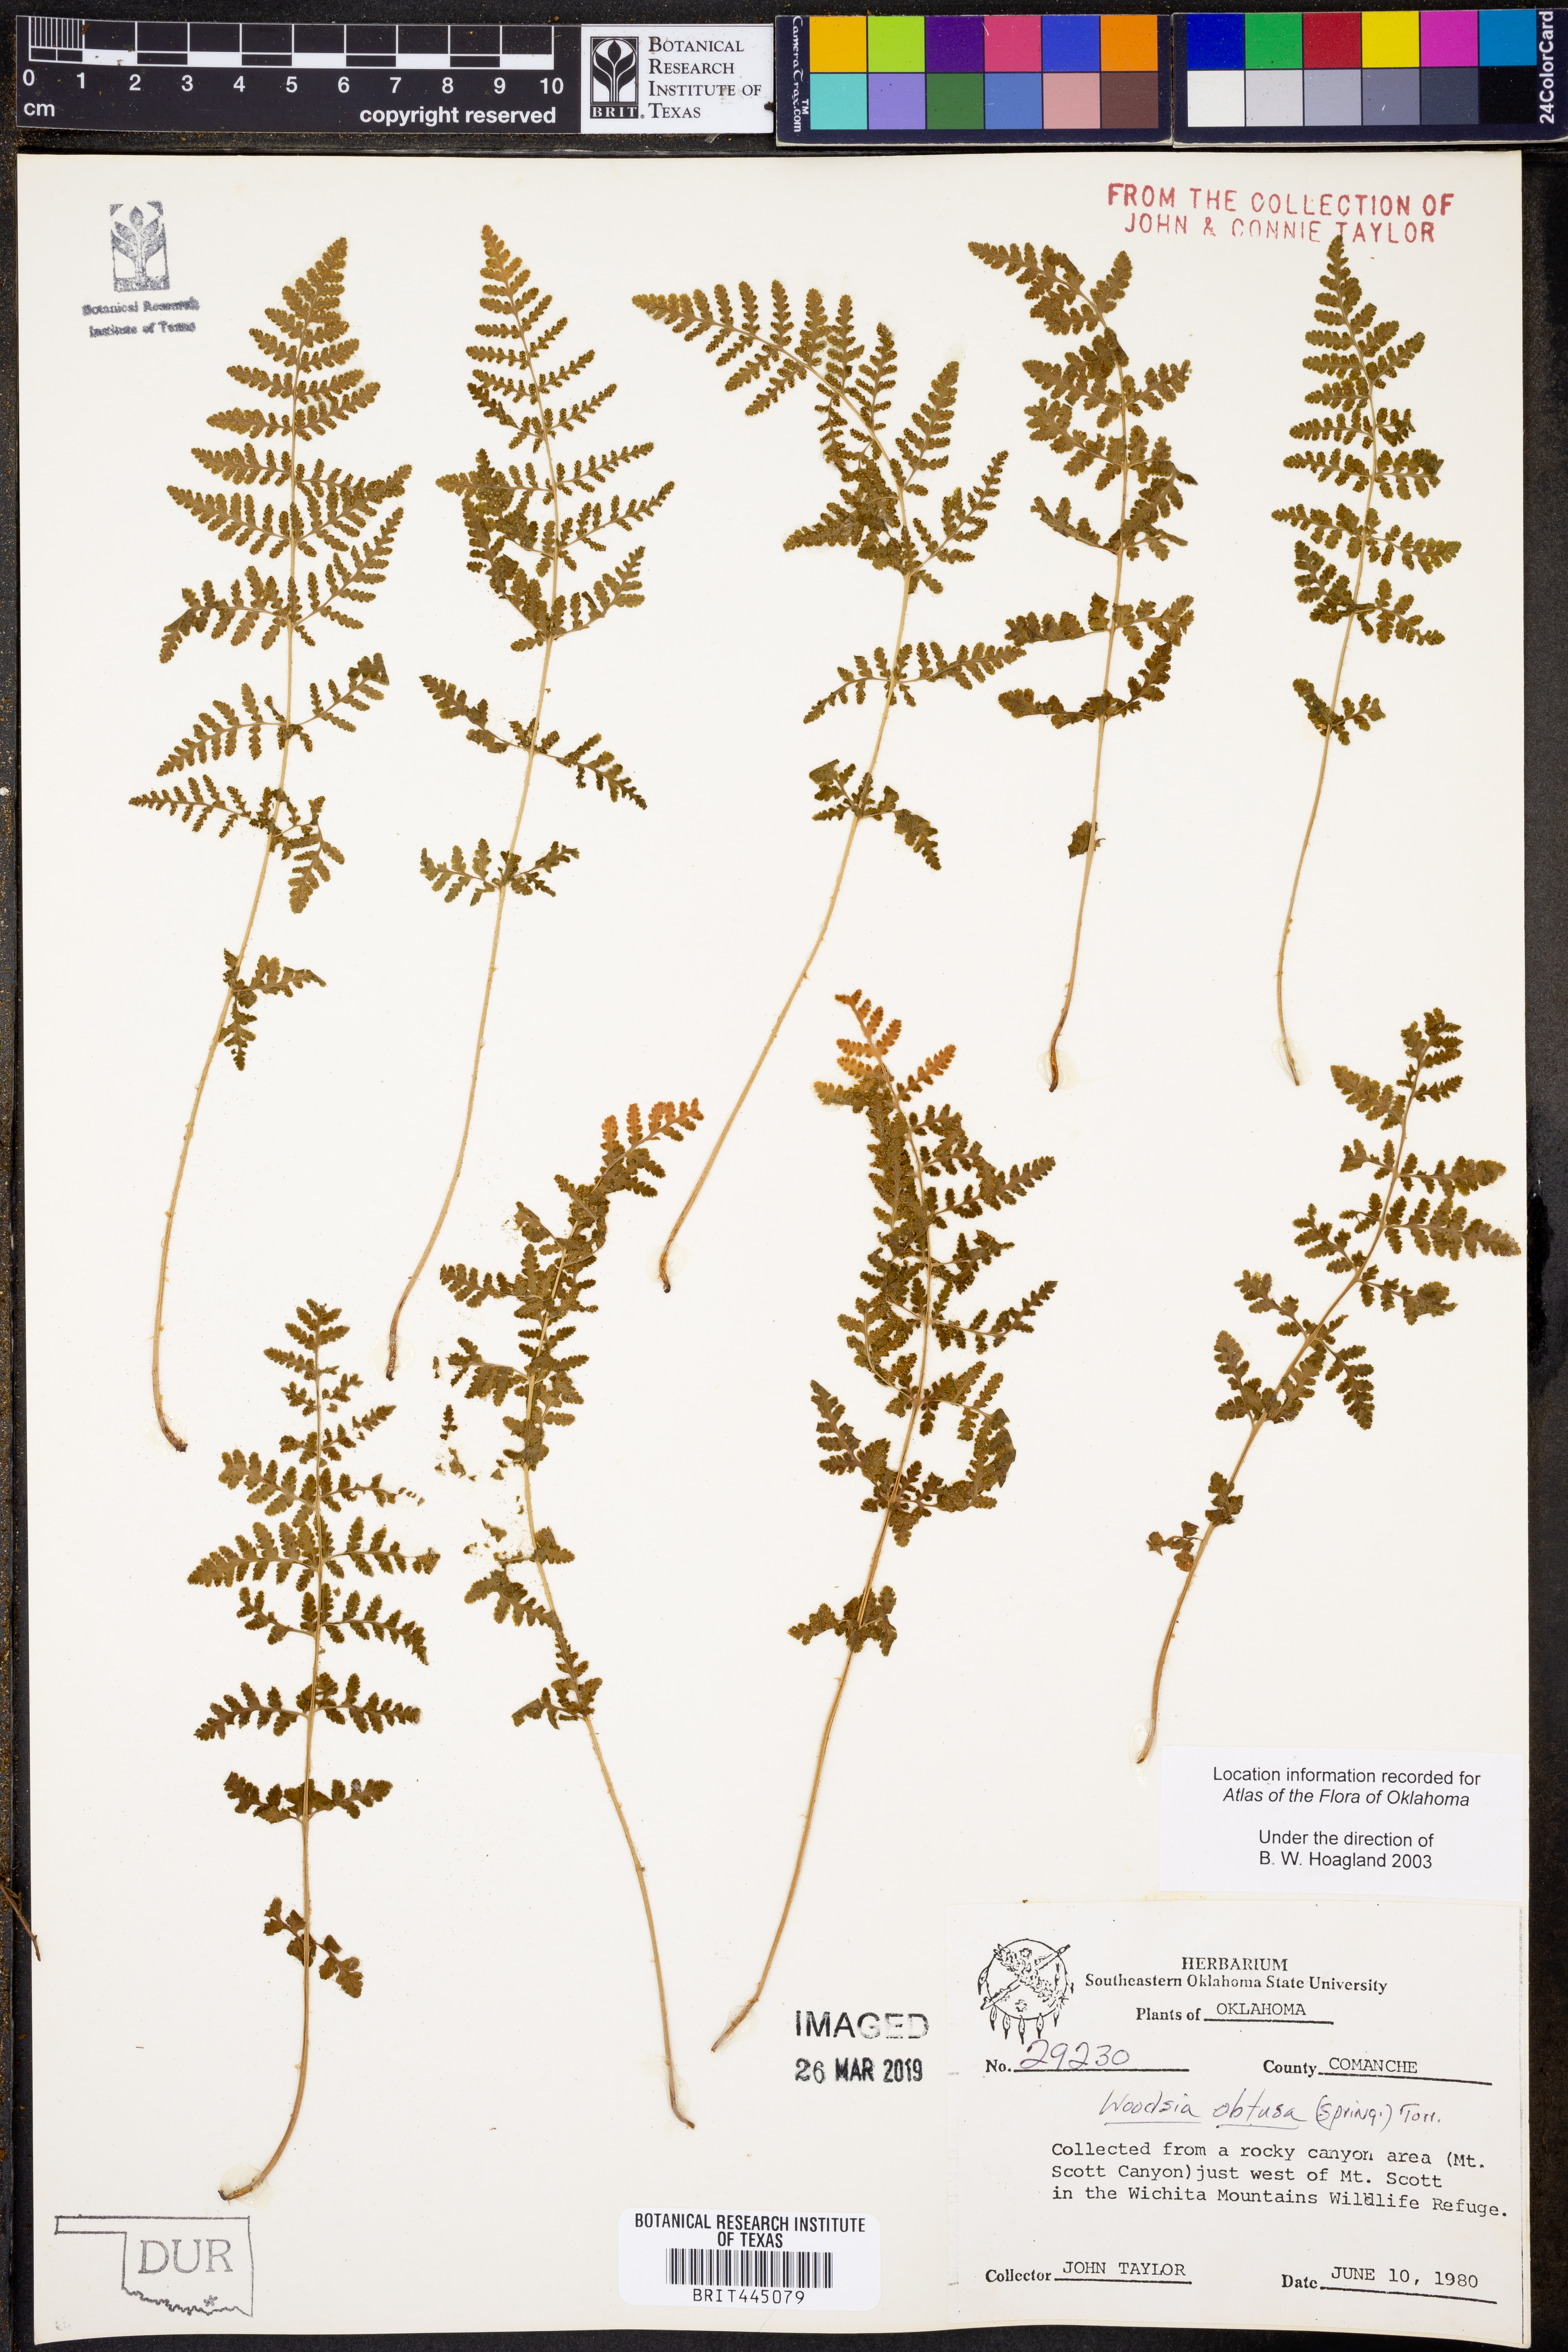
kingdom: Plantae
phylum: Tracheophyta
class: Polypodiopsida
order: Polypodiales
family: Woodsiaceae
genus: Physematium
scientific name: Physematium obtusum
